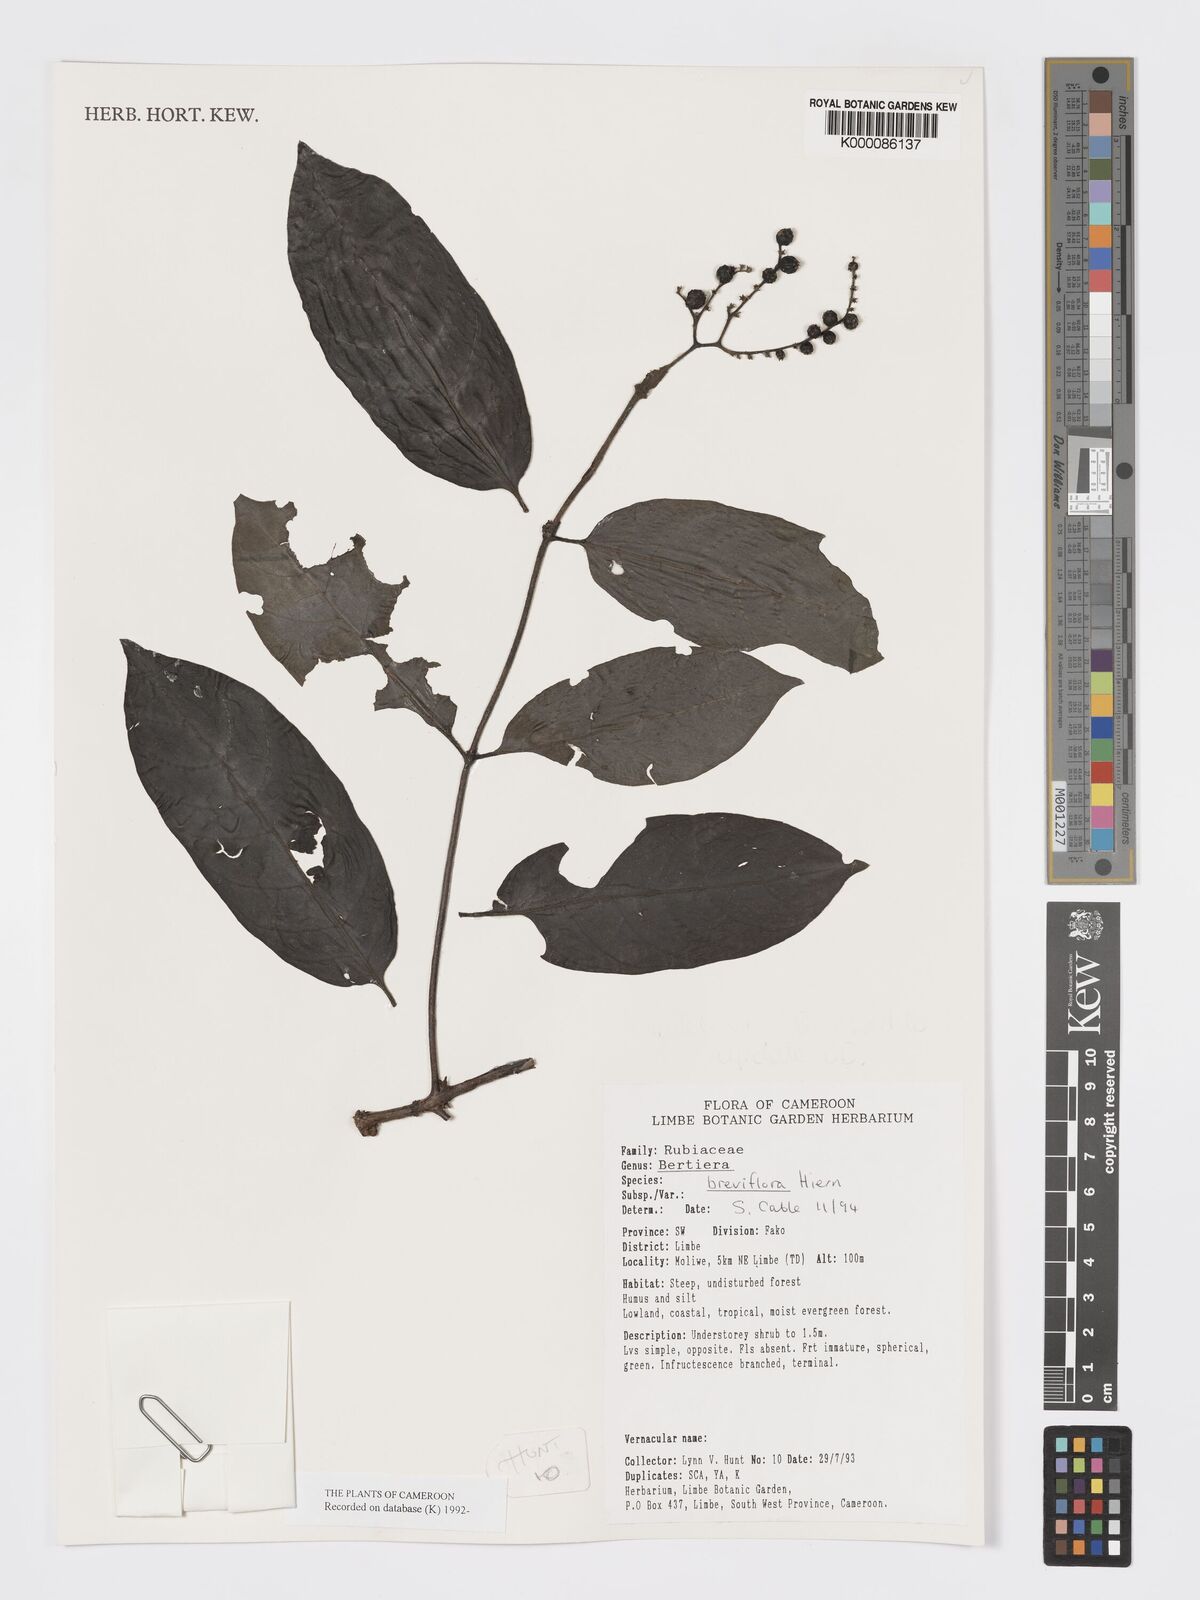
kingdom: Plantae
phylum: Tracheophyta
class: Magnoliopsida
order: Gentianales
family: Rubiaceae
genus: Bertiera
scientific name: Bertiera breviflora
